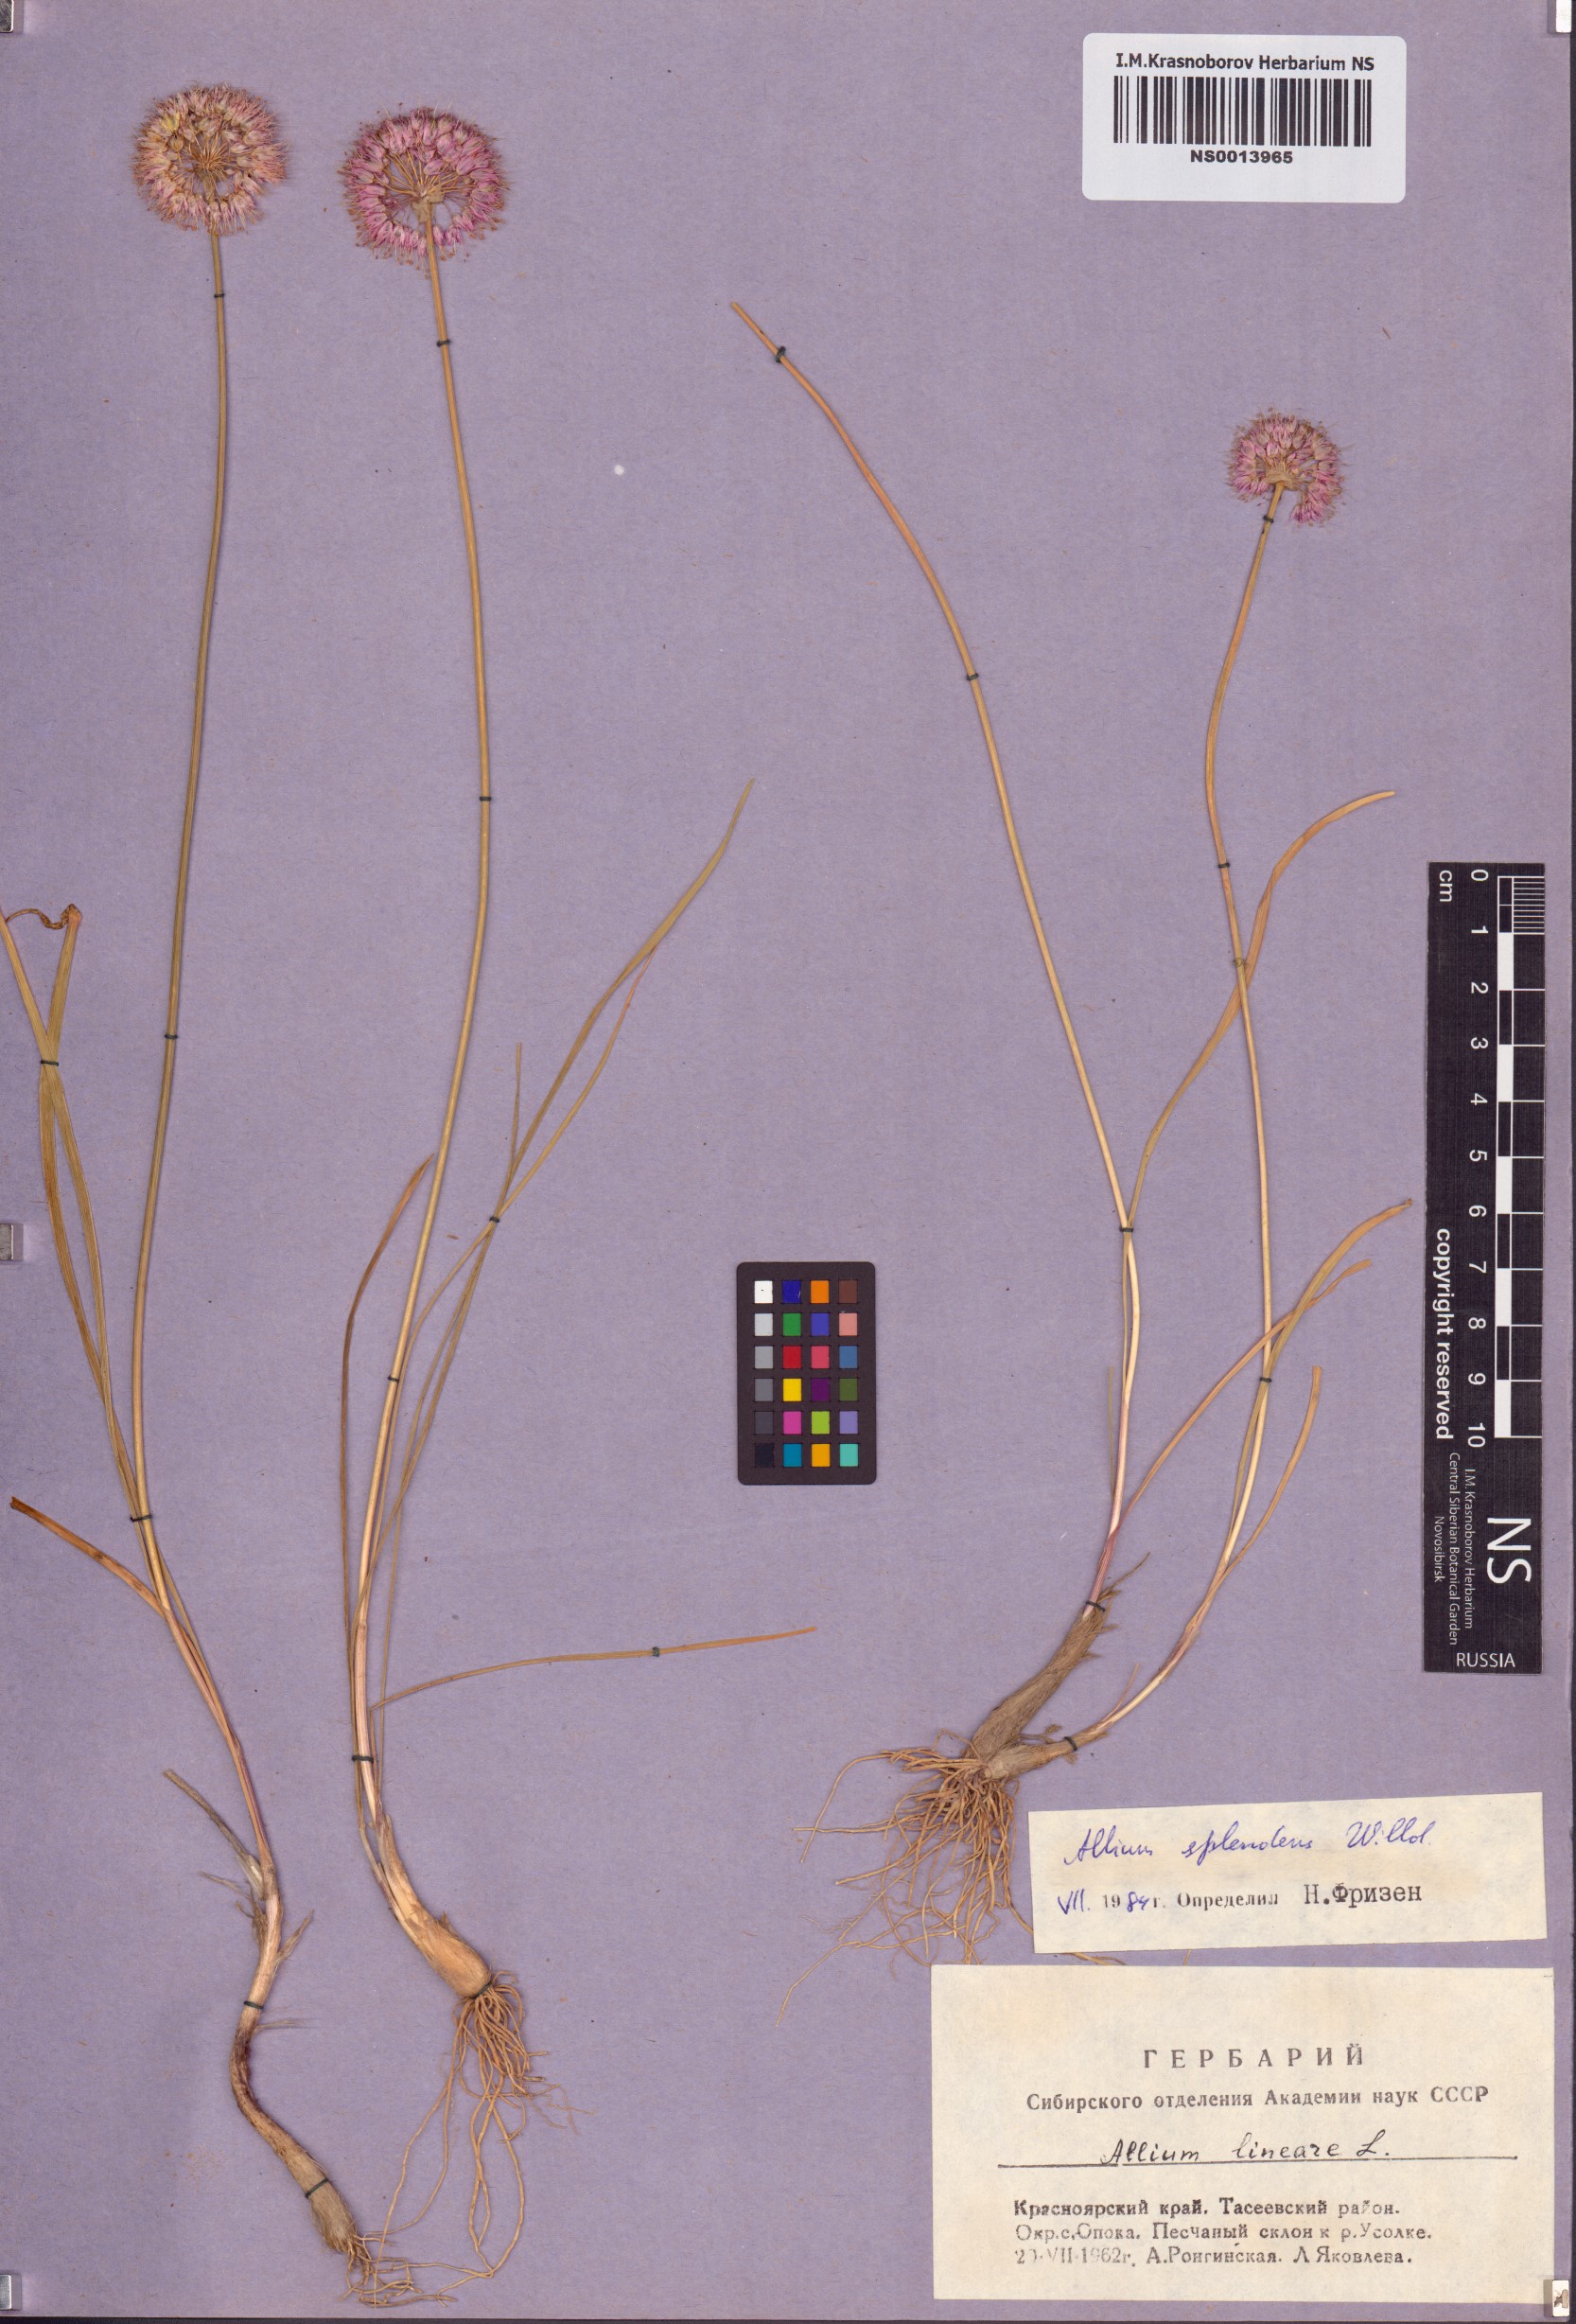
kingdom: Plantae
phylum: Tracheophyta
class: Liliopsida
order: Asparagales
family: Amaryllidaceae
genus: Allium
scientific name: Allium splendens
